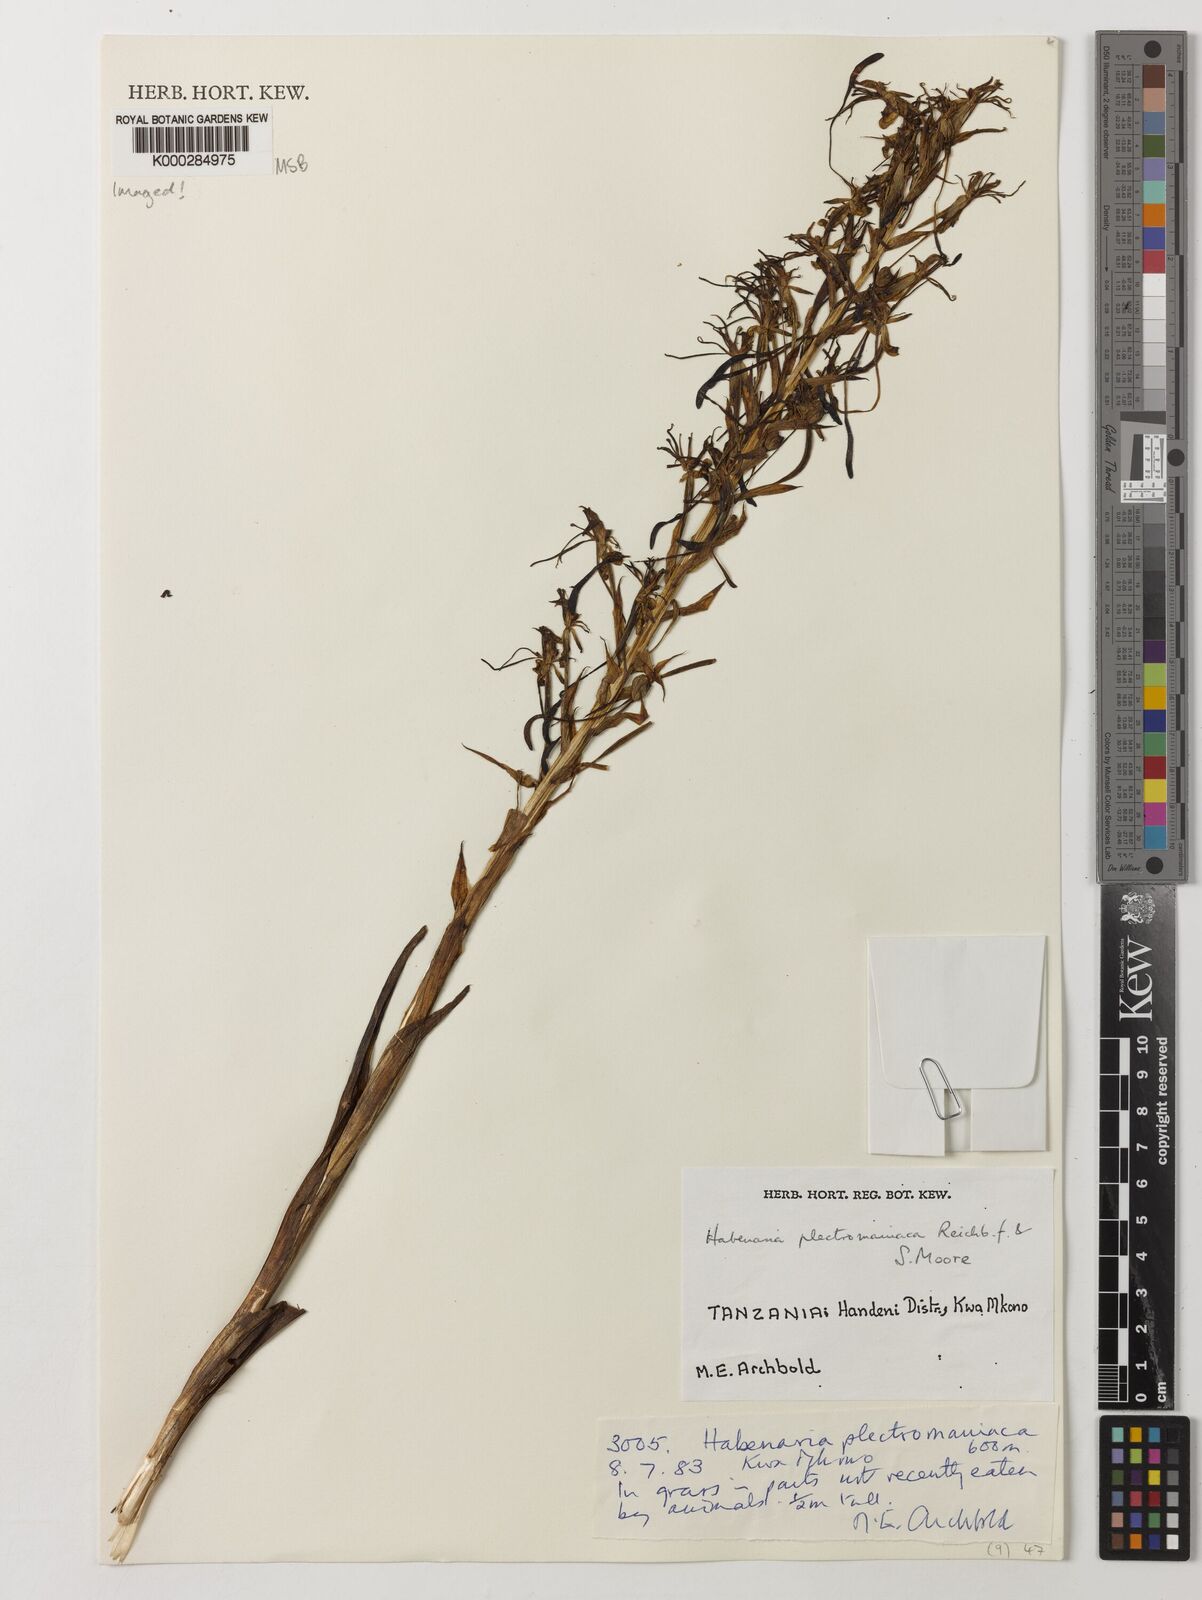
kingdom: Plantae
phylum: Tracheophyta
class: Liliopsida
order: Asparagales
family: Orchidaceae
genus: Habenaria
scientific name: Habenaria plectromaniaca
